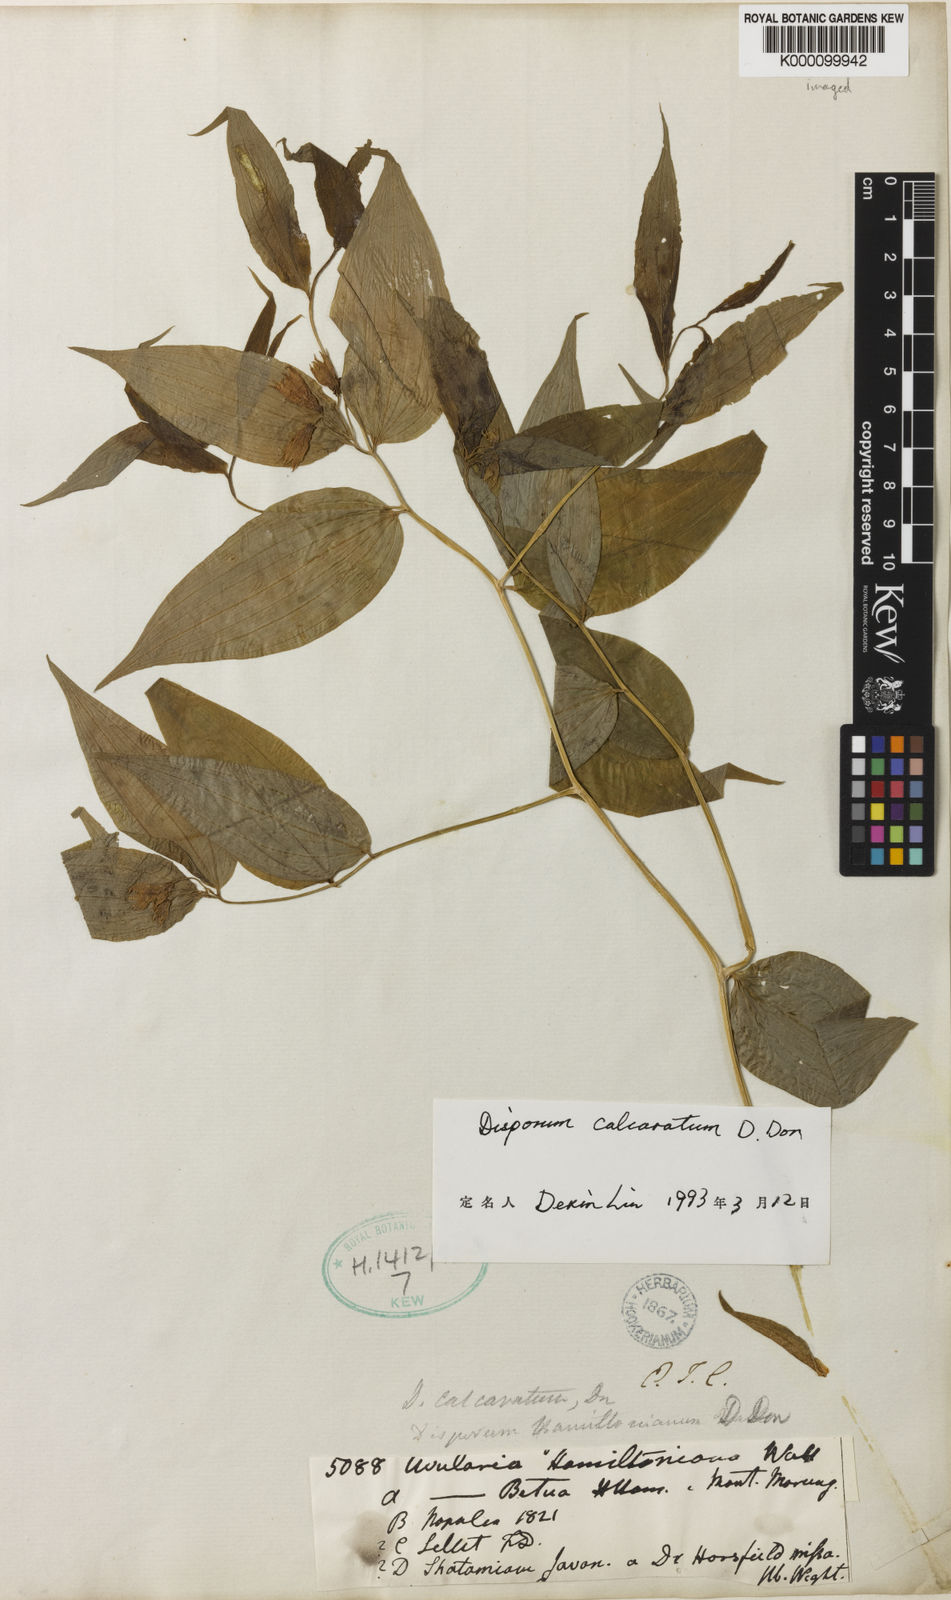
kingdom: Plantae
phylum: Tracheophyta
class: Liliopsida
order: Liliales
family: Colchicaceae
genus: Disporum
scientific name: Disporum calcaratum
